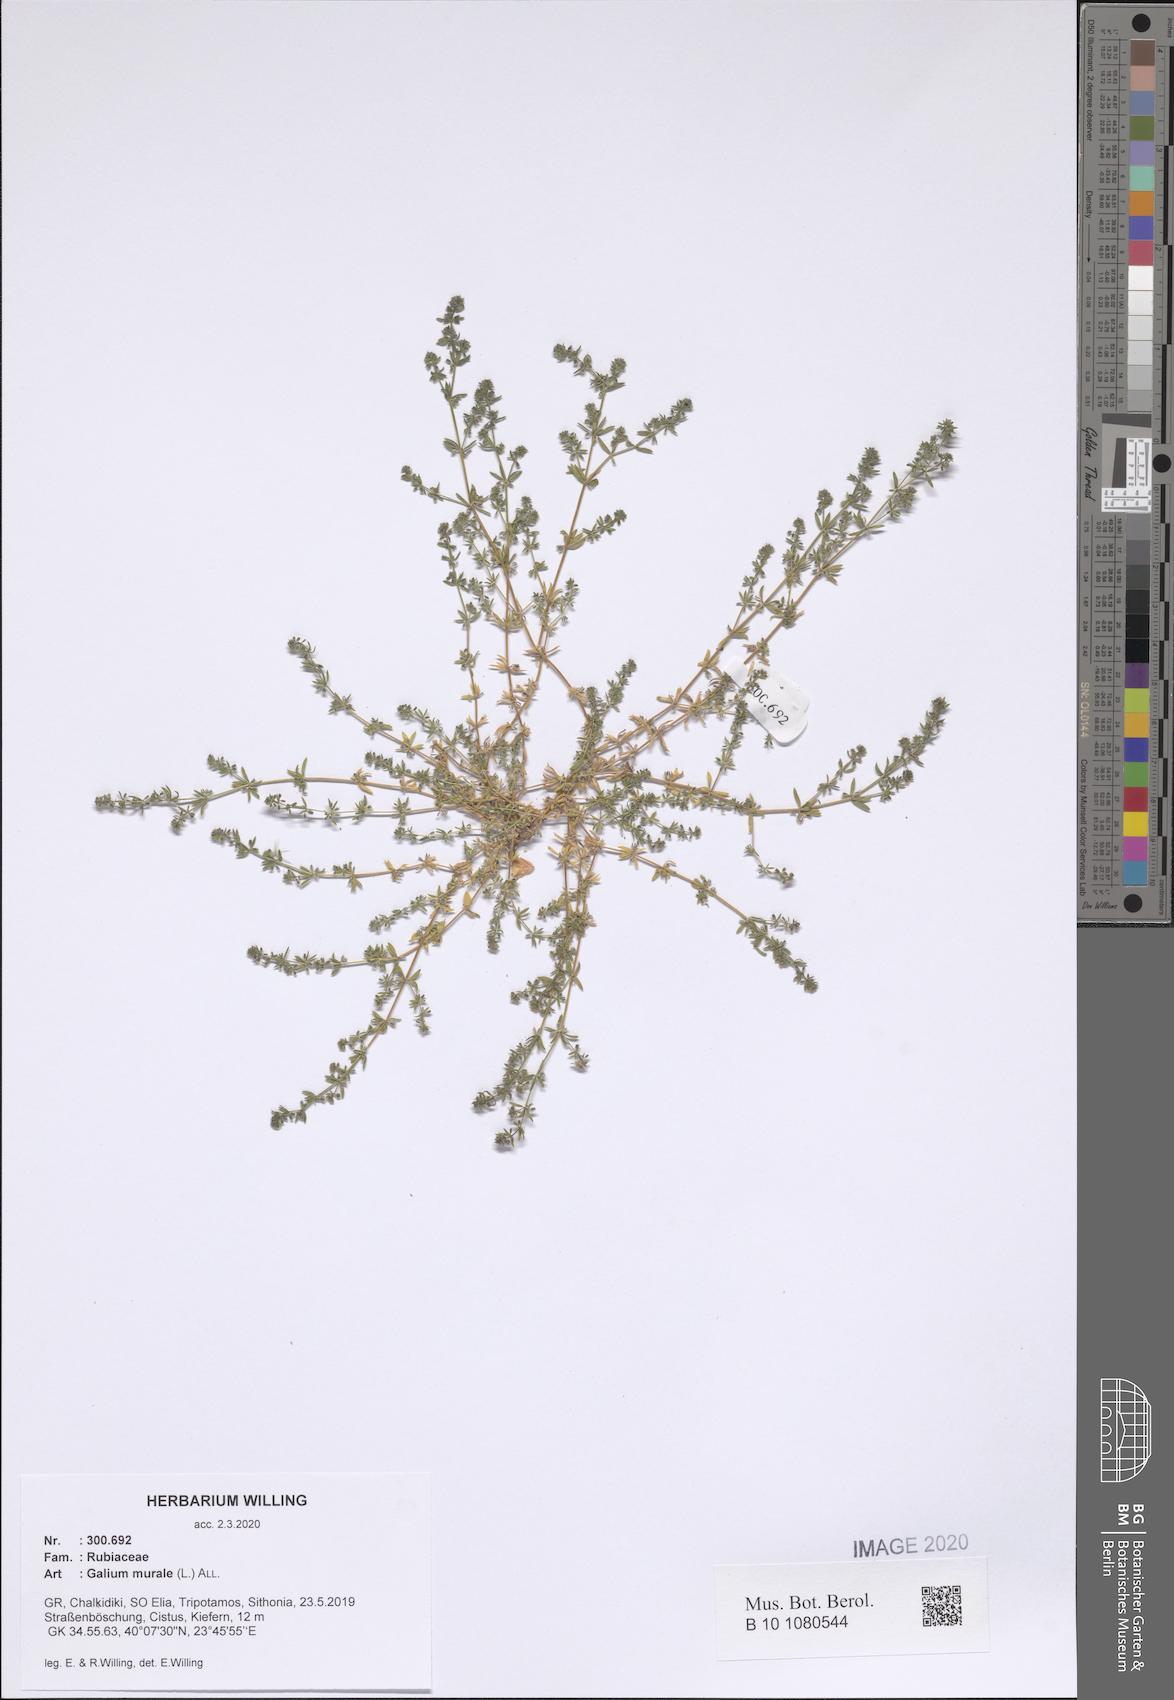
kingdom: Plantae
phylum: Tracheophyta
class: Magnoliopsida
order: Gentianales
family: Rubiaceae
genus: Galium
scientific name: Galium murale
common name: Yellow wall bedstraw
